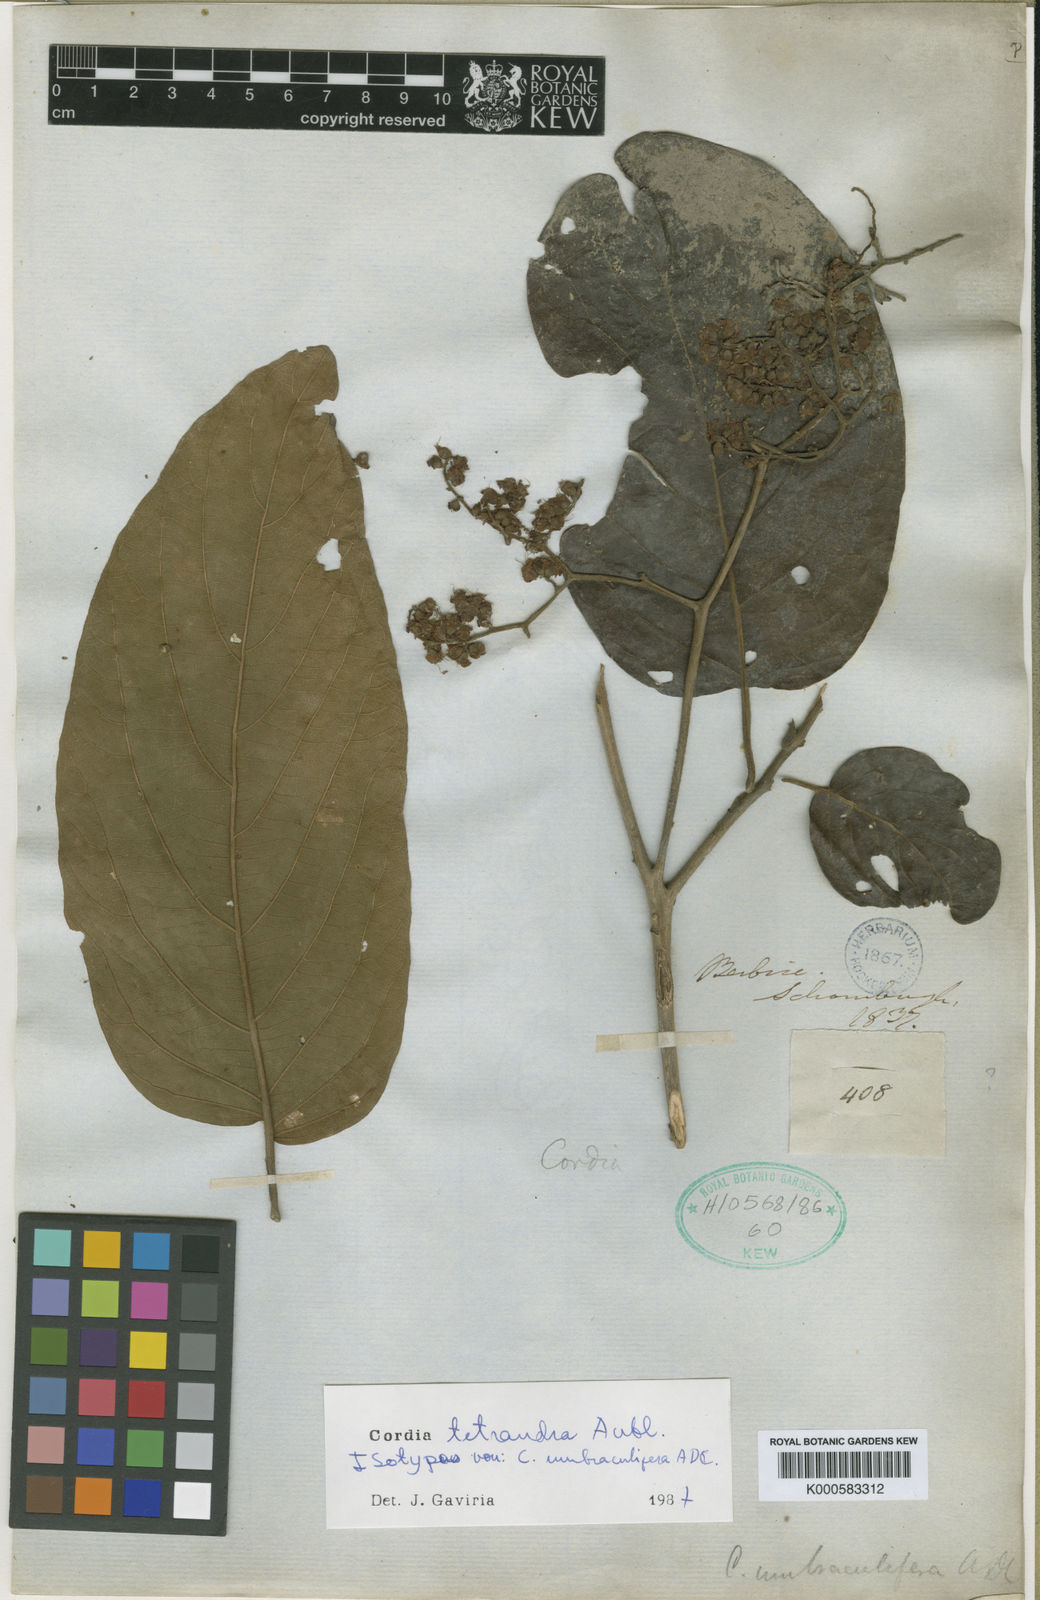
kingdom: Plantae
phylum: Tracheophyta
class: Magnoliopsida
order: Boraginales
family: Cordiaceae
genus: Cordia
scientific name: Cordia tetrandra
